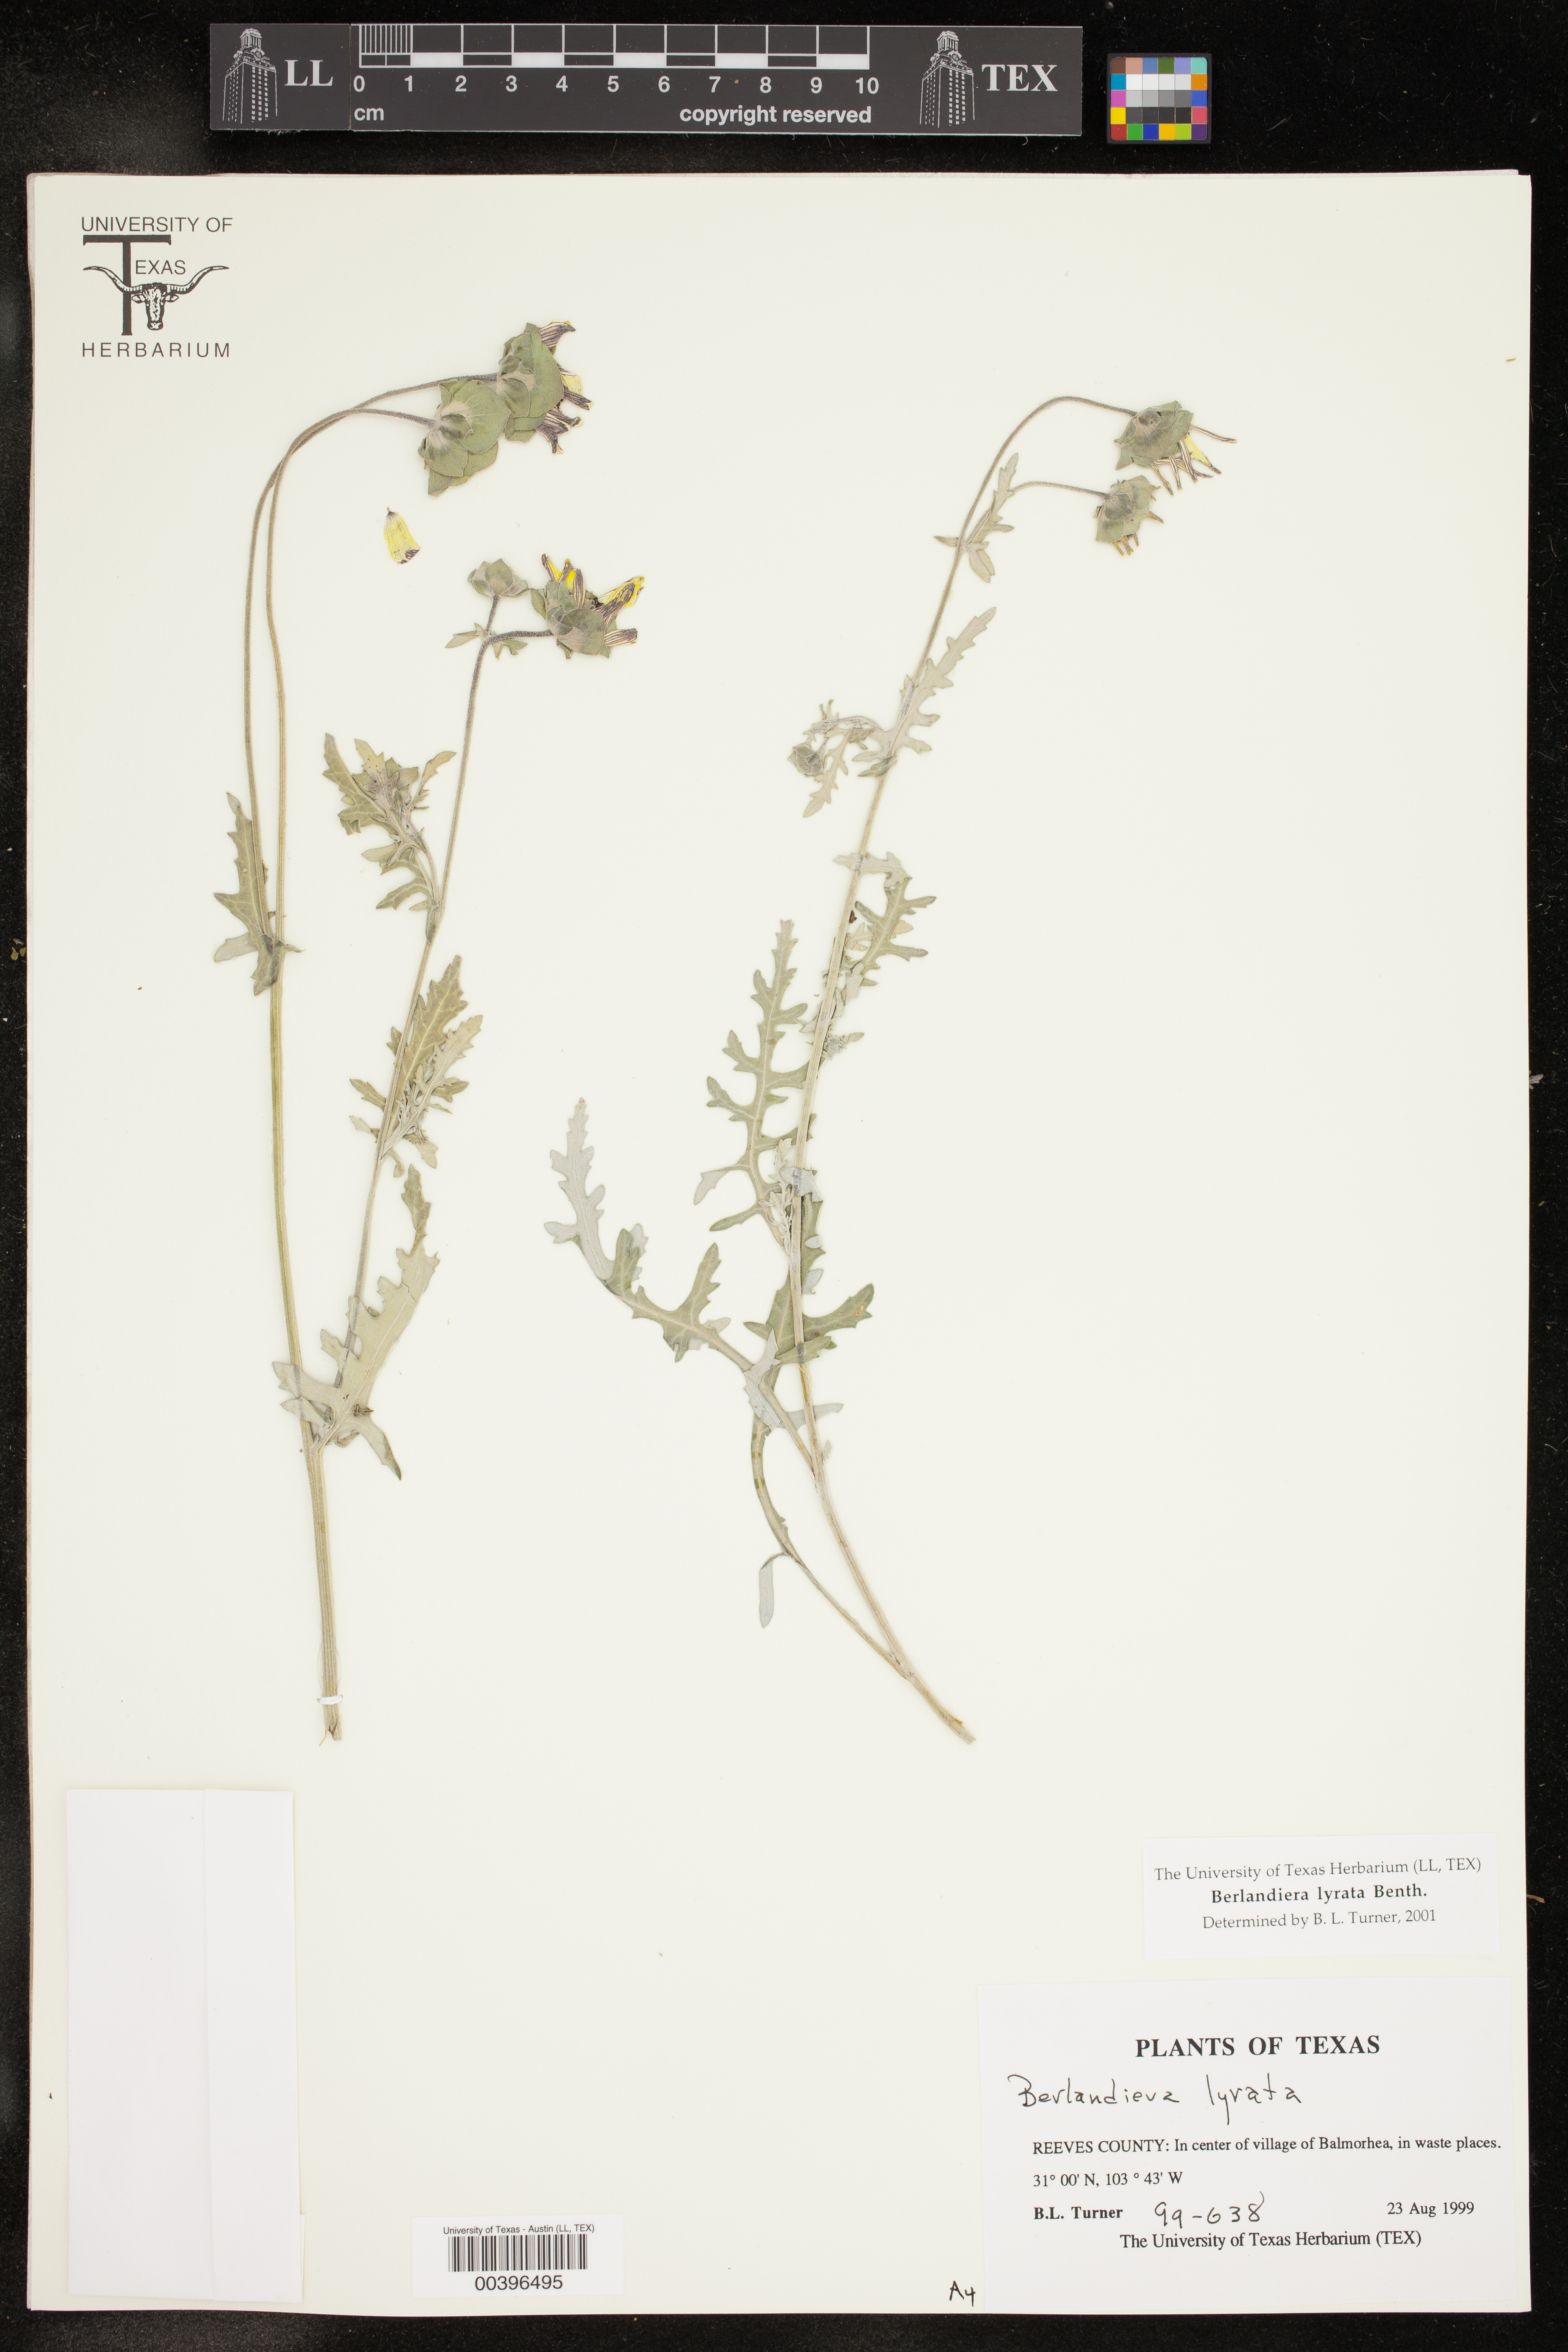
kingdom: Plantae
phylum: Tracheophyta
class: Magnoliopsida
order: Asterales
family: Asteraceae
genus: Berlandiera
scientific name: Berlandiera lyrata
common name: Chocolate-flower
